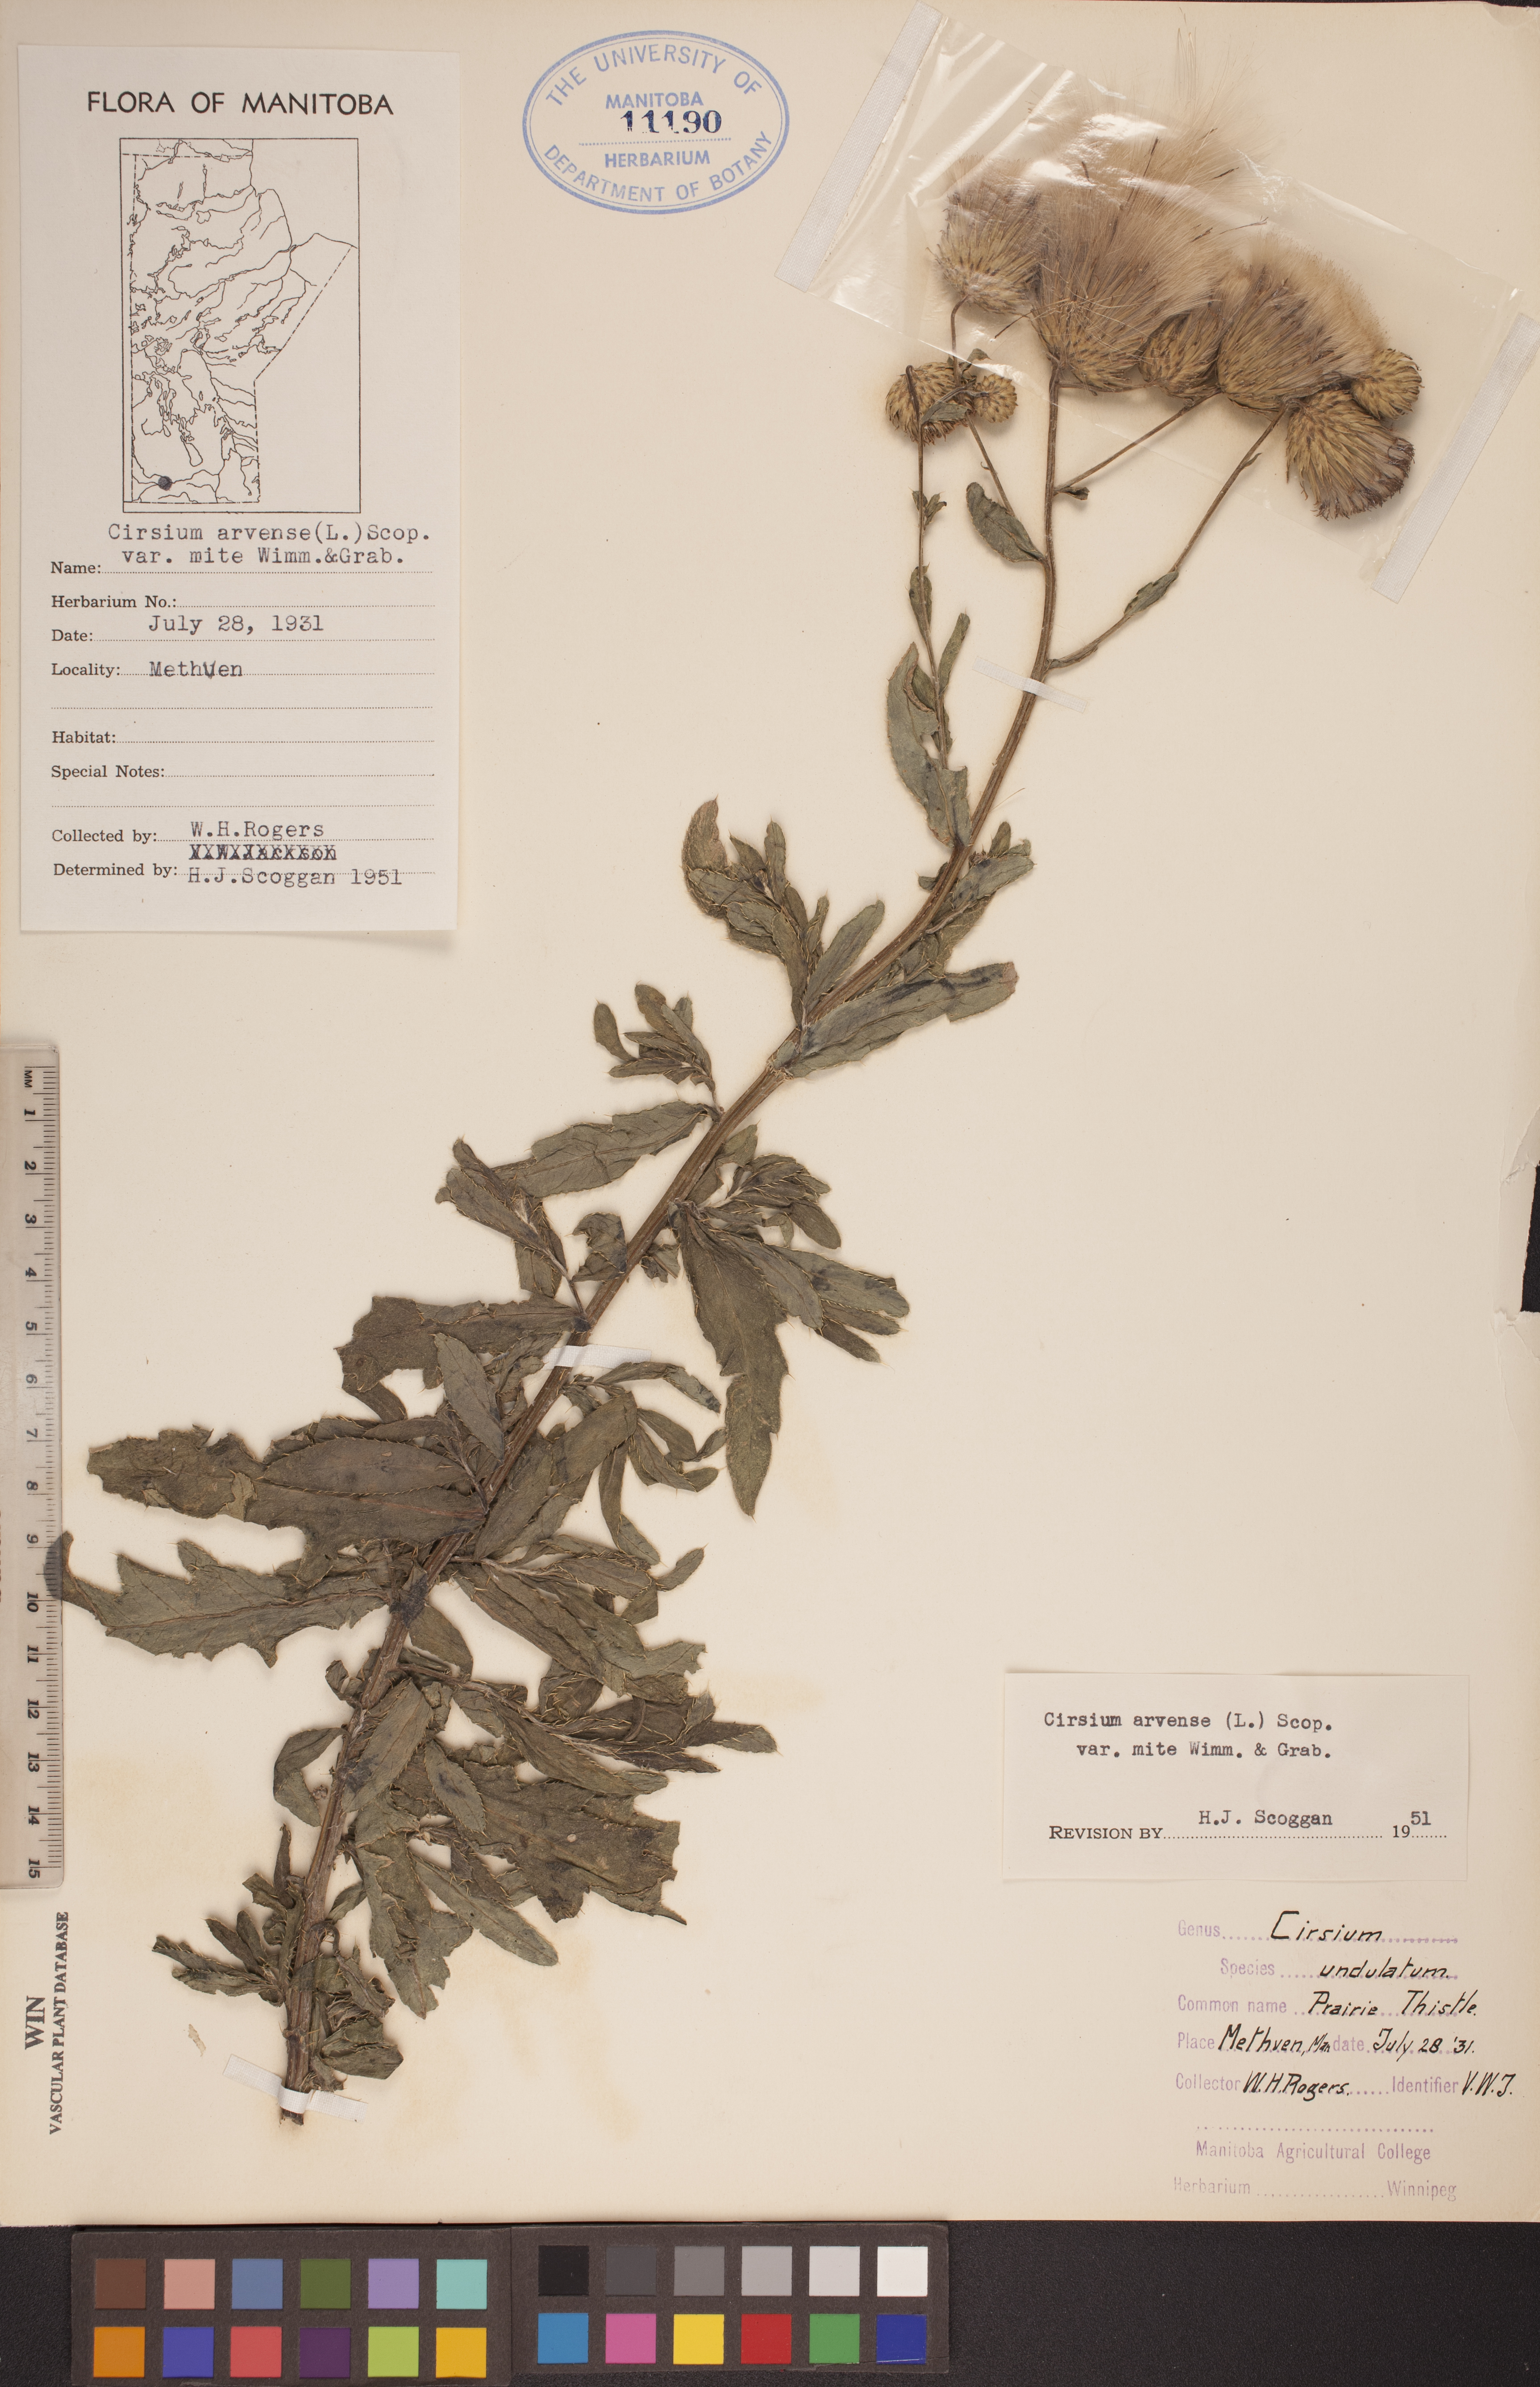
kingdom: Plantae
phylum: Tracheophyta
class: Magnoliopsida
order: Asterales
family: Asteraceae
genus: Cirsium
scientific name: Cirsium arvense
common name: Creeping thistle
